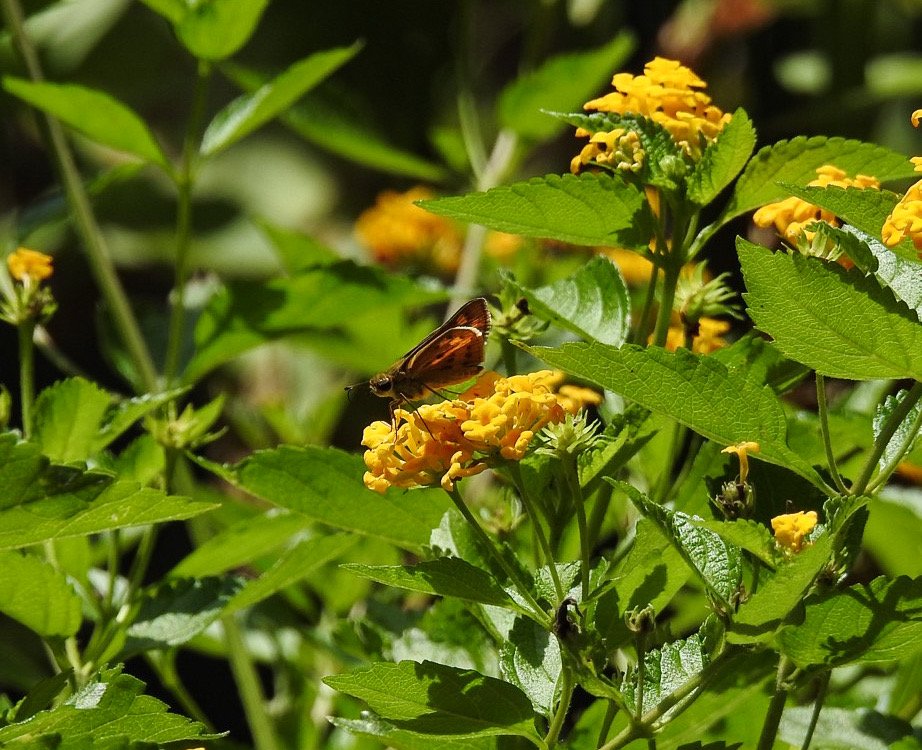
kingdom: Animalia
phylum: Arthropoda
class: Insecta
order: Lepidoptera
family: Hesperiidae
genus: Hylephila
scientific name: Hylephila phyleus
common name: Fiery Skipper
